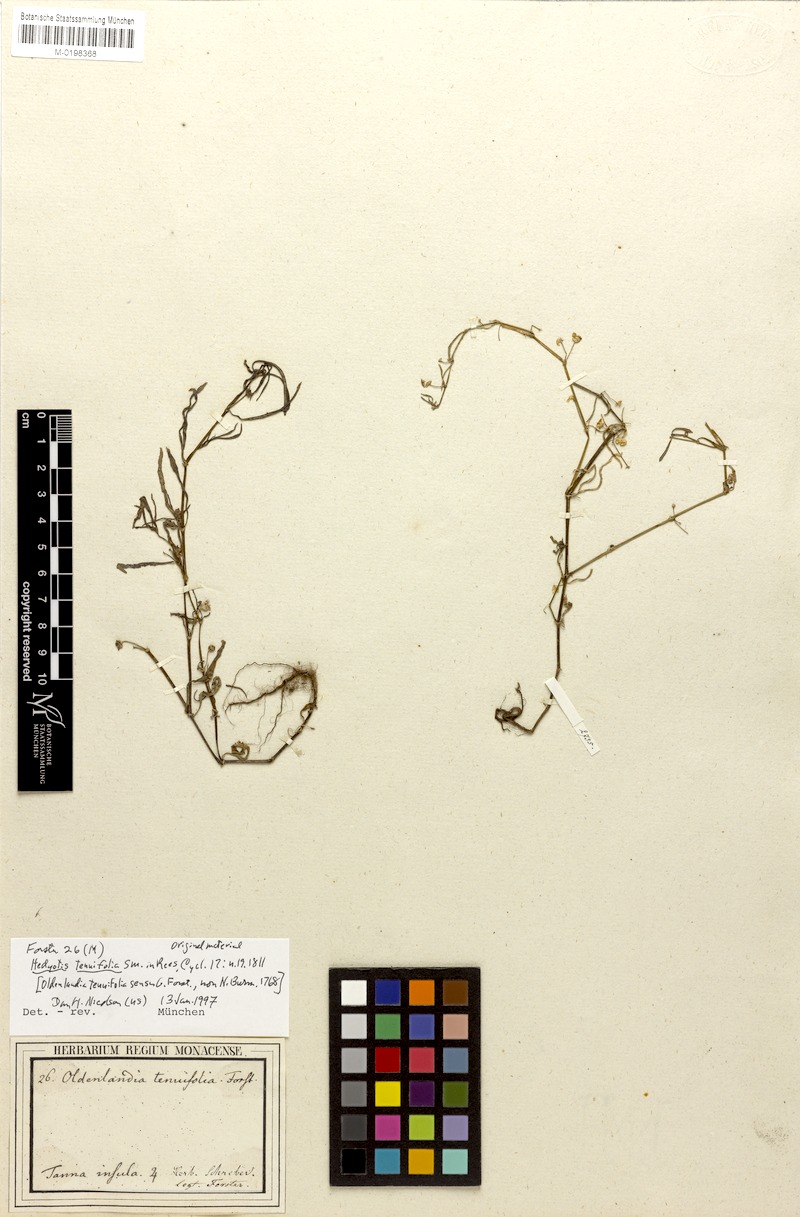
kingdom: Plantae
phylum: Tracheophyta
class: Magnoliopsida
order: Gentianales
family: Rubiaceae
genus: Scleromitrion
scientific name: Scleromitrion galioides
